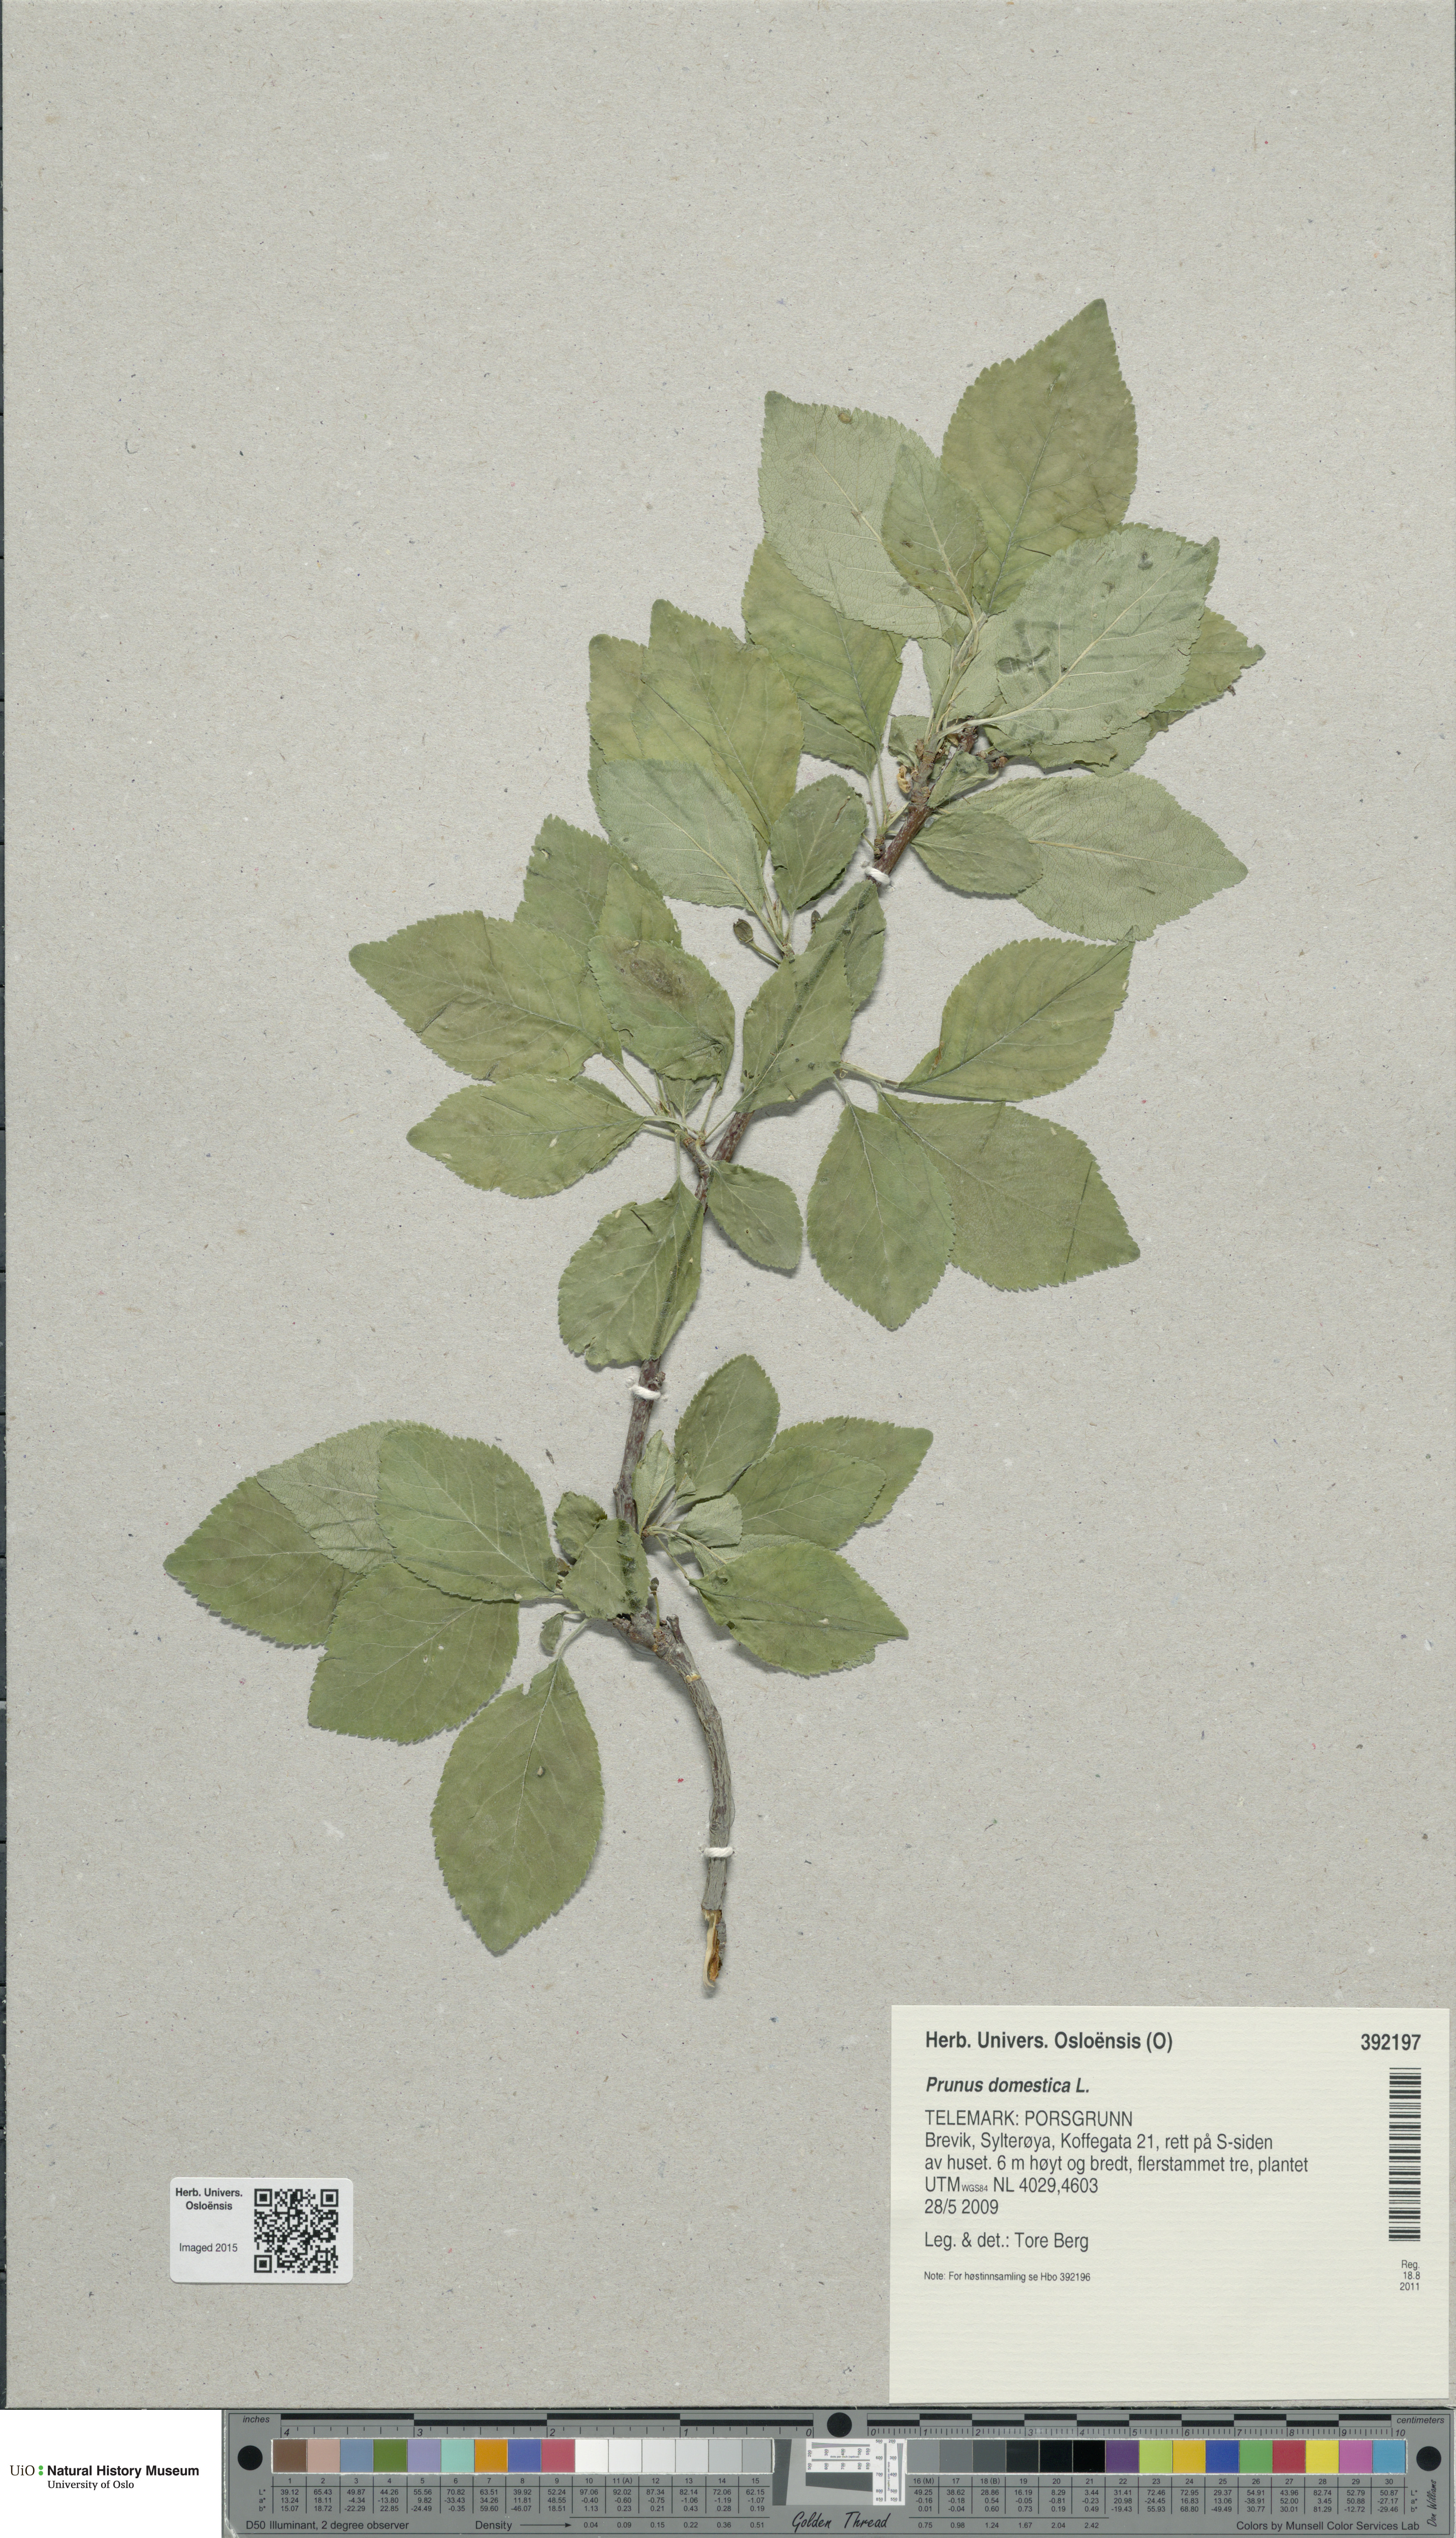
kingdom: Plantae
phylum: Tracheophyta
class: Magnoliopsida
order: Rosales
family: Rosaceae
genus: Prunus
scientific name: Prunus domestica
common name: Wild plum
